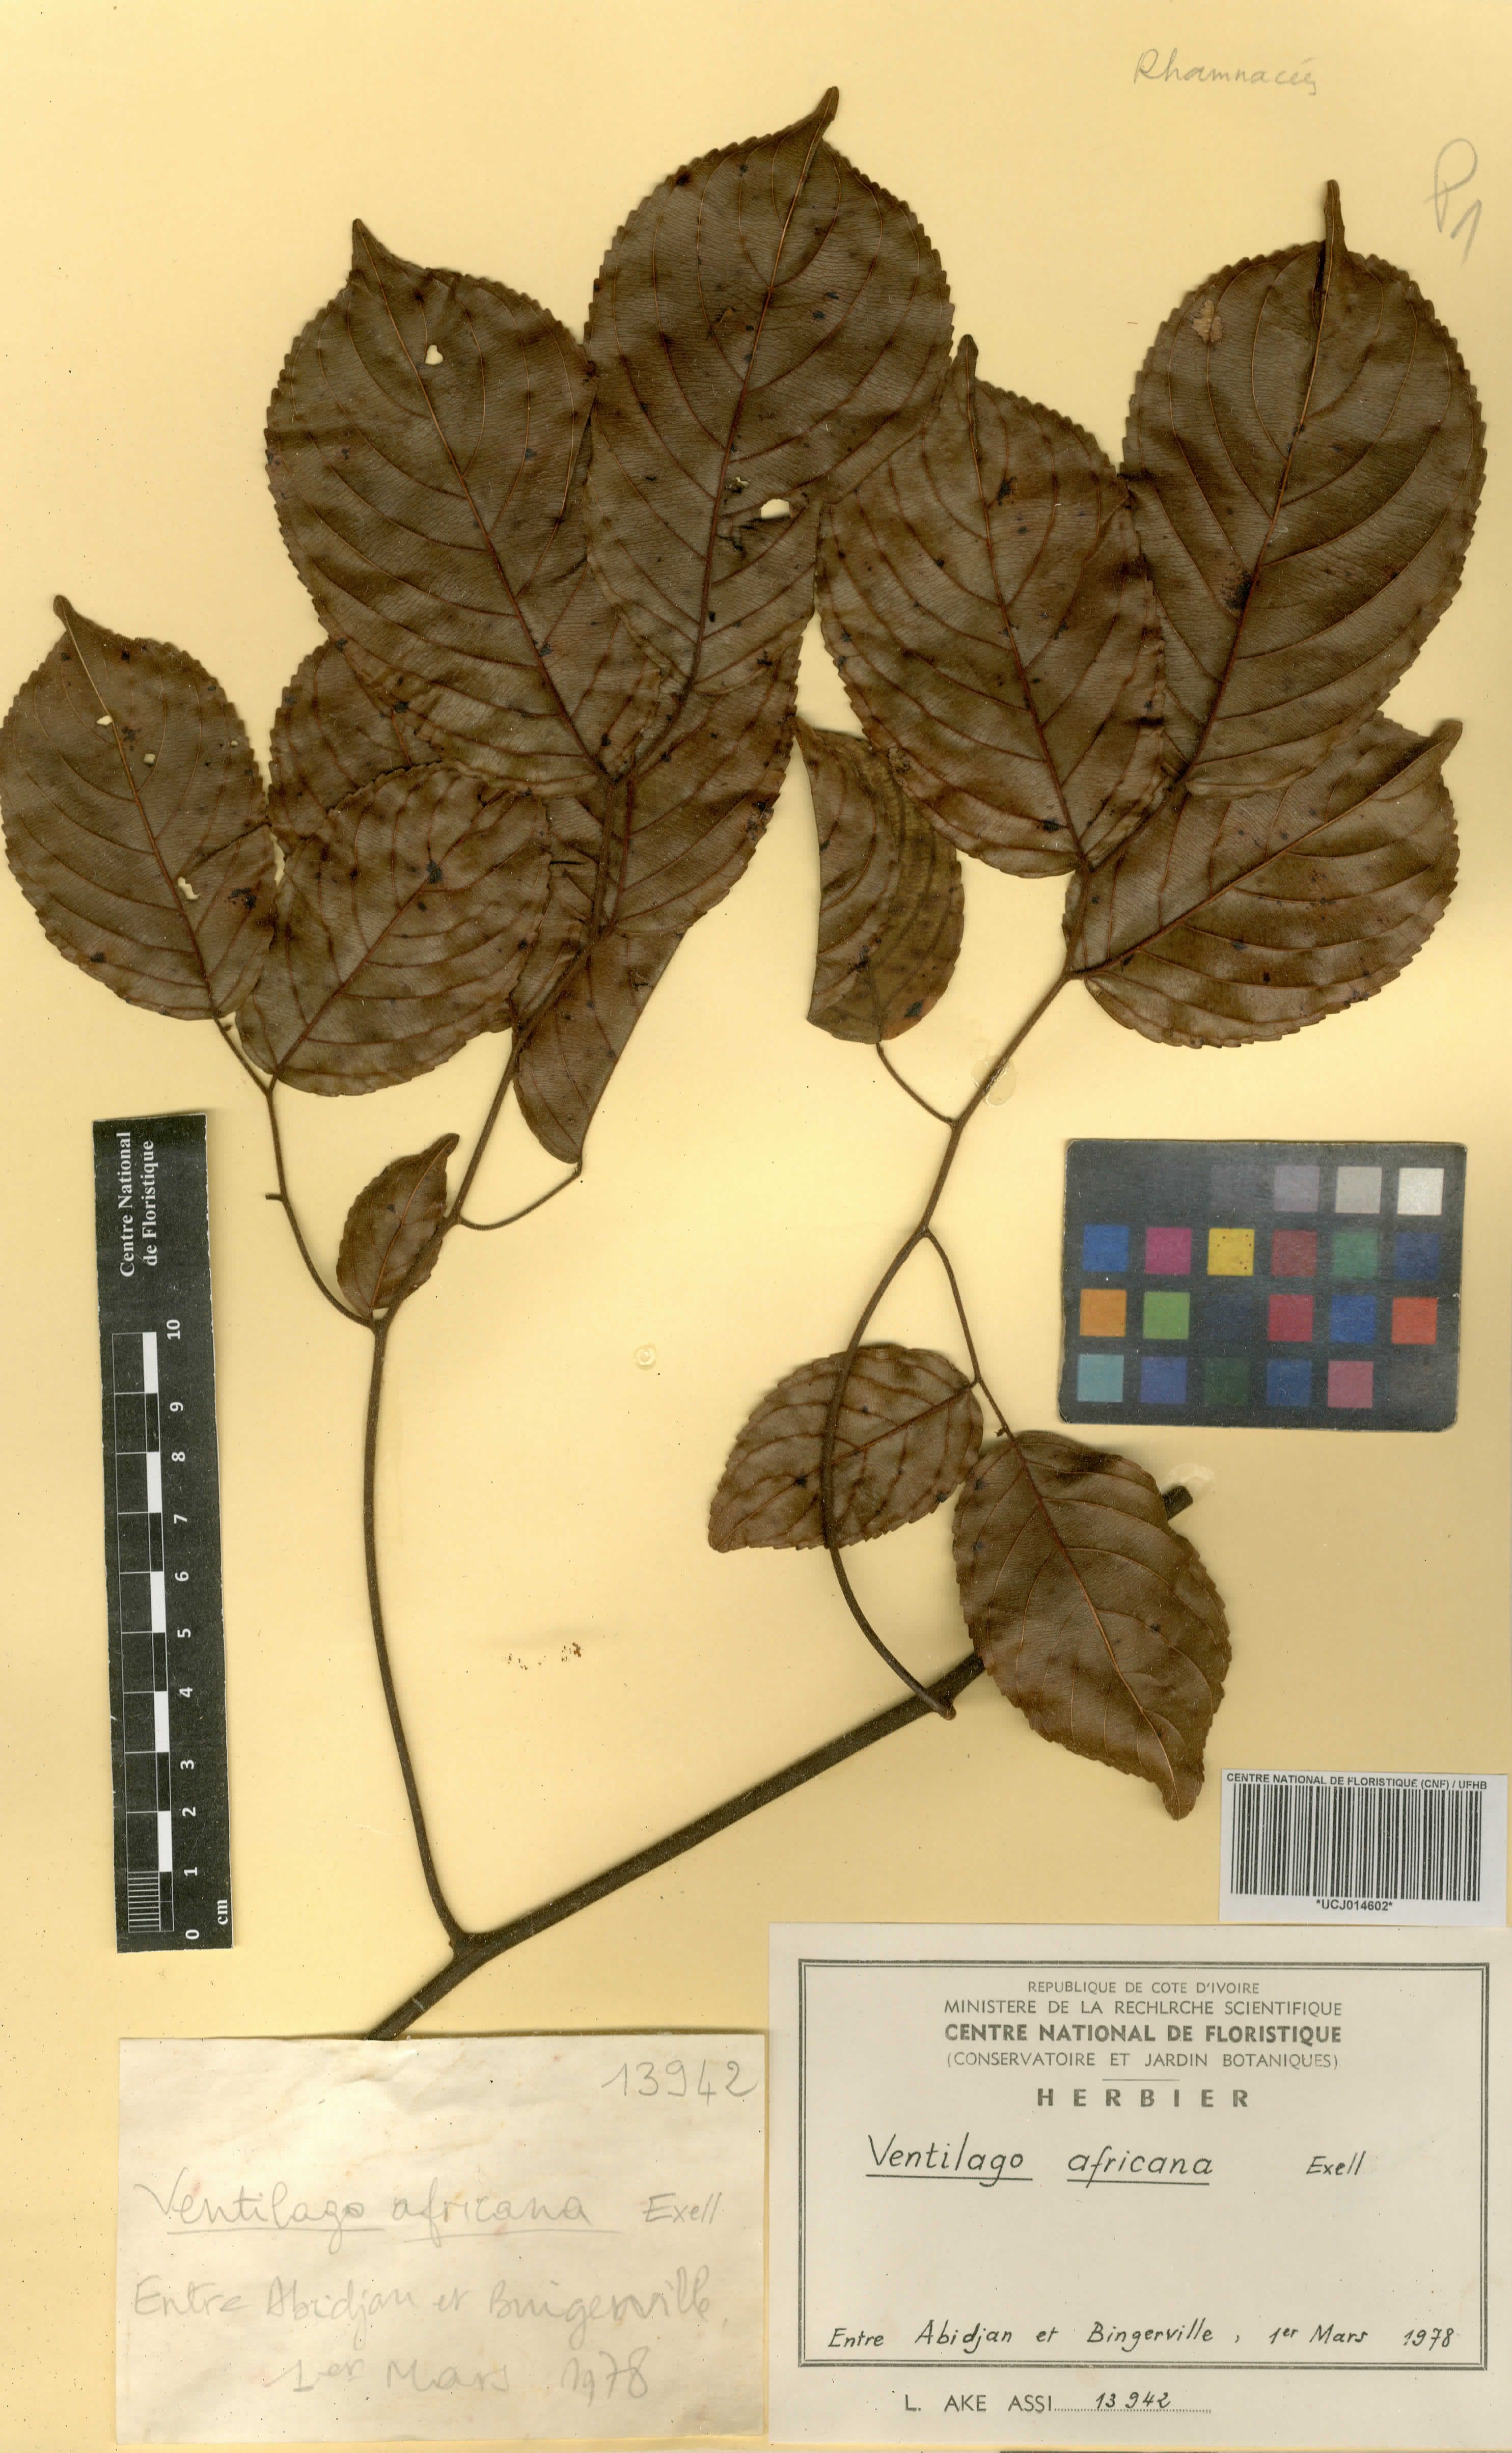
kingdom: Plantae
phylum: Tracheophyta
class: Magnoliopsida
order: Rosales
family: Rhamnaceae
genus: Ventilago
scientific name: Ventilago africana
